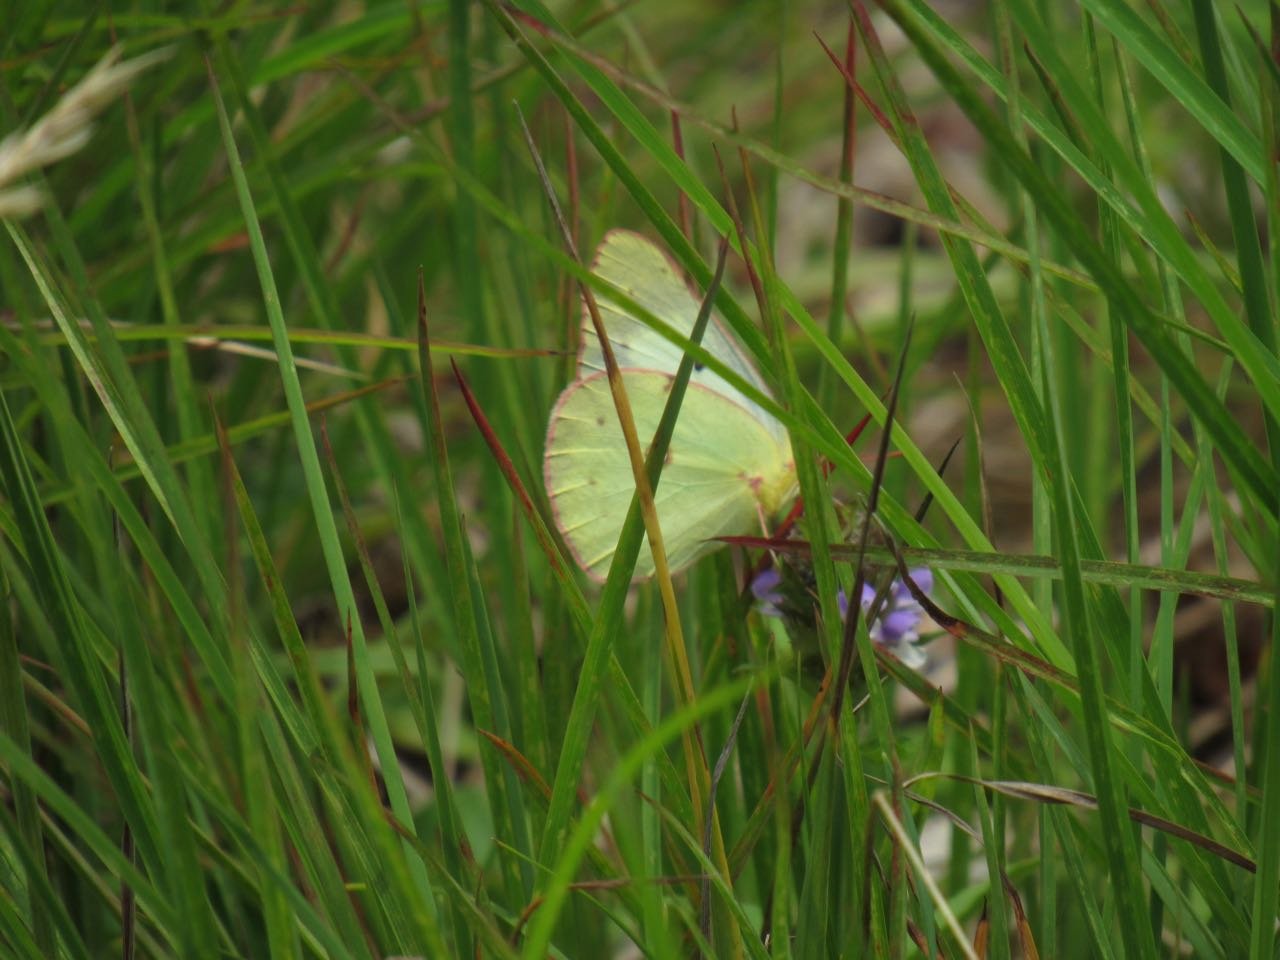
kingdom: Animalia
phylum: Arthropoda
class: Insecta
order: Lepidoptera
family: Pieridae
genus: Colias
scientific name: Colias philodice
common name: Clouded Sulphur
